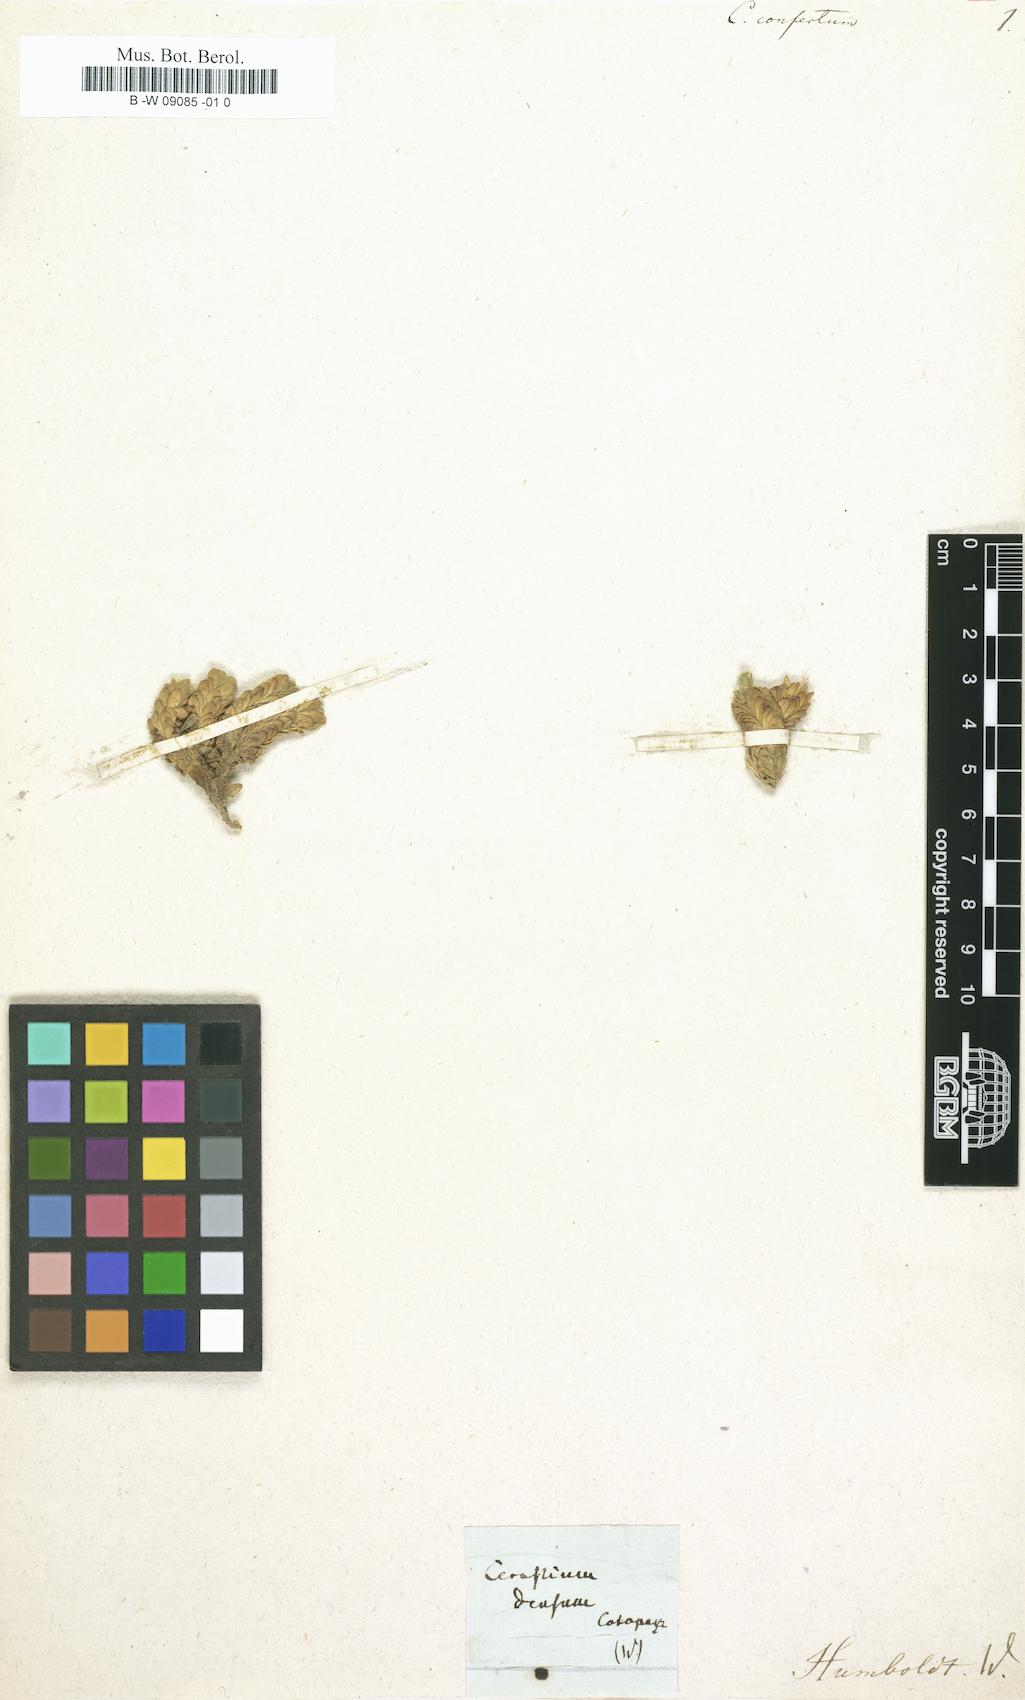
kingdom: Plantae
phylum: Tracheophyta
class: Magnoliopsida
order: Caryophyllales
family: Caryophyllaceae
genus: Cerastium
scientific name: Cerastium elongatum
